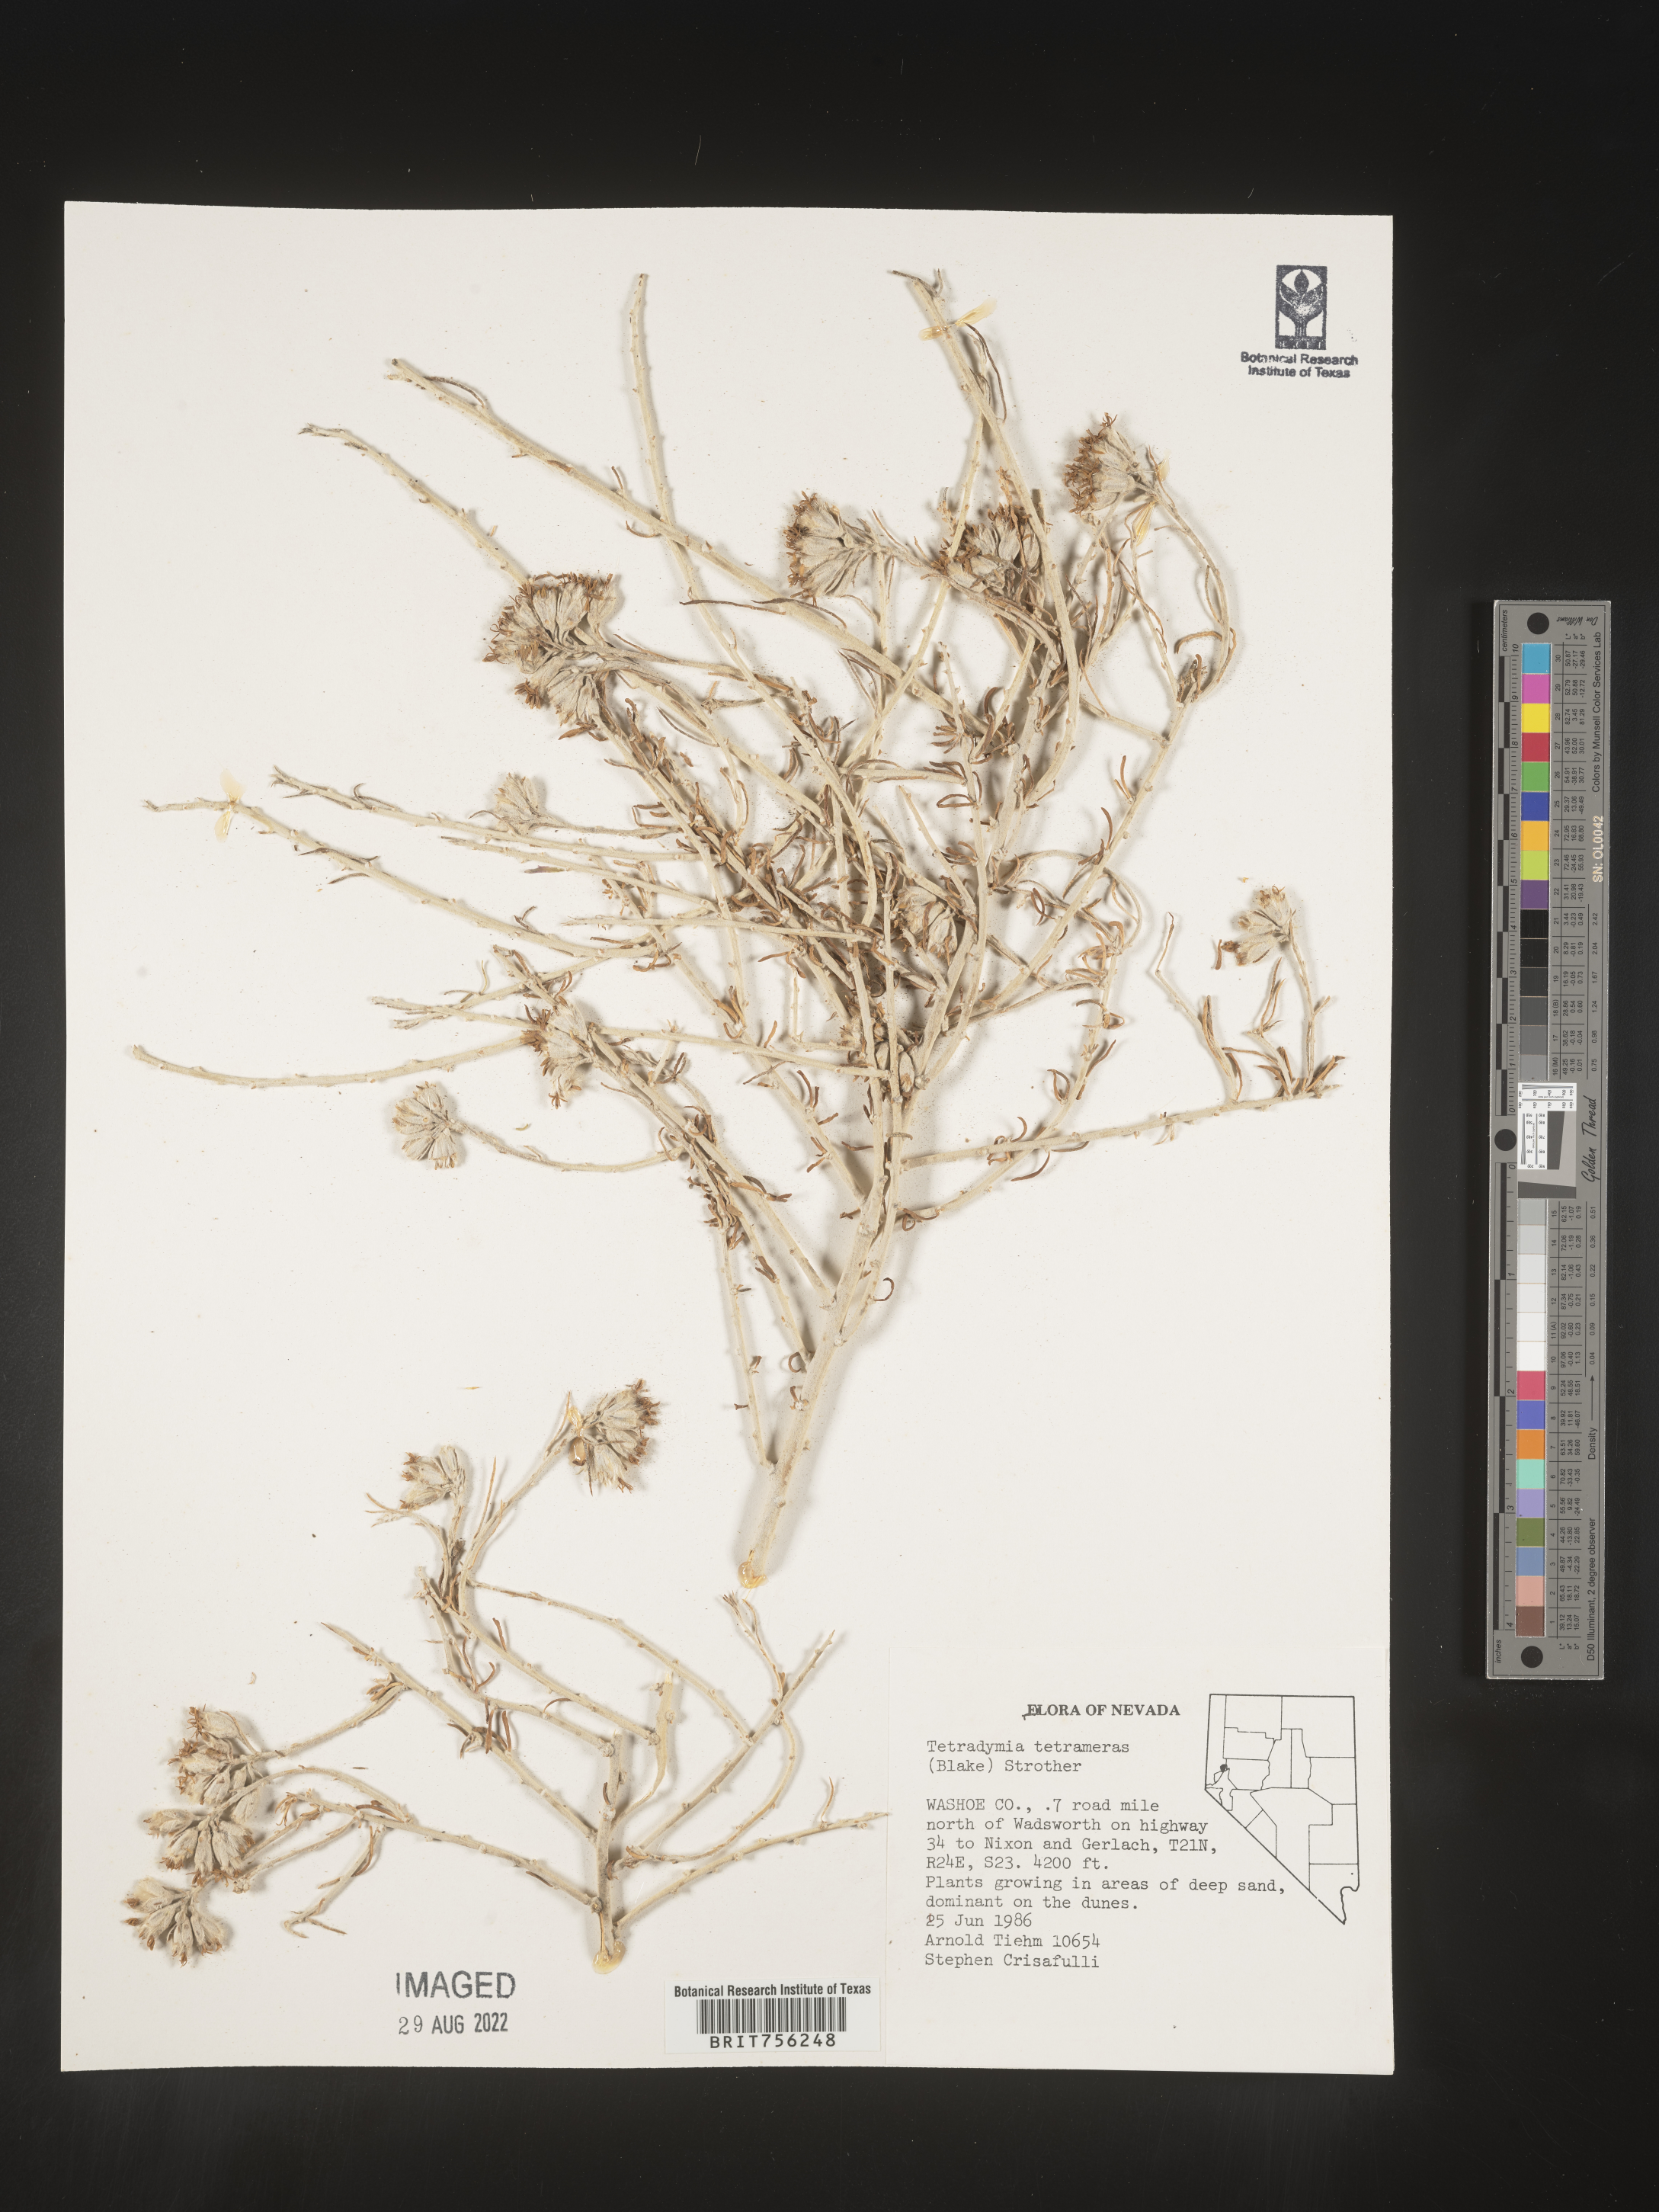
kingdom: Plantae
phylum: Tracheophyta
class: Magnoliopsida
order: Asterales
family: Asteraceae
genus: Tetradymia
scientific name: Tetradymia
